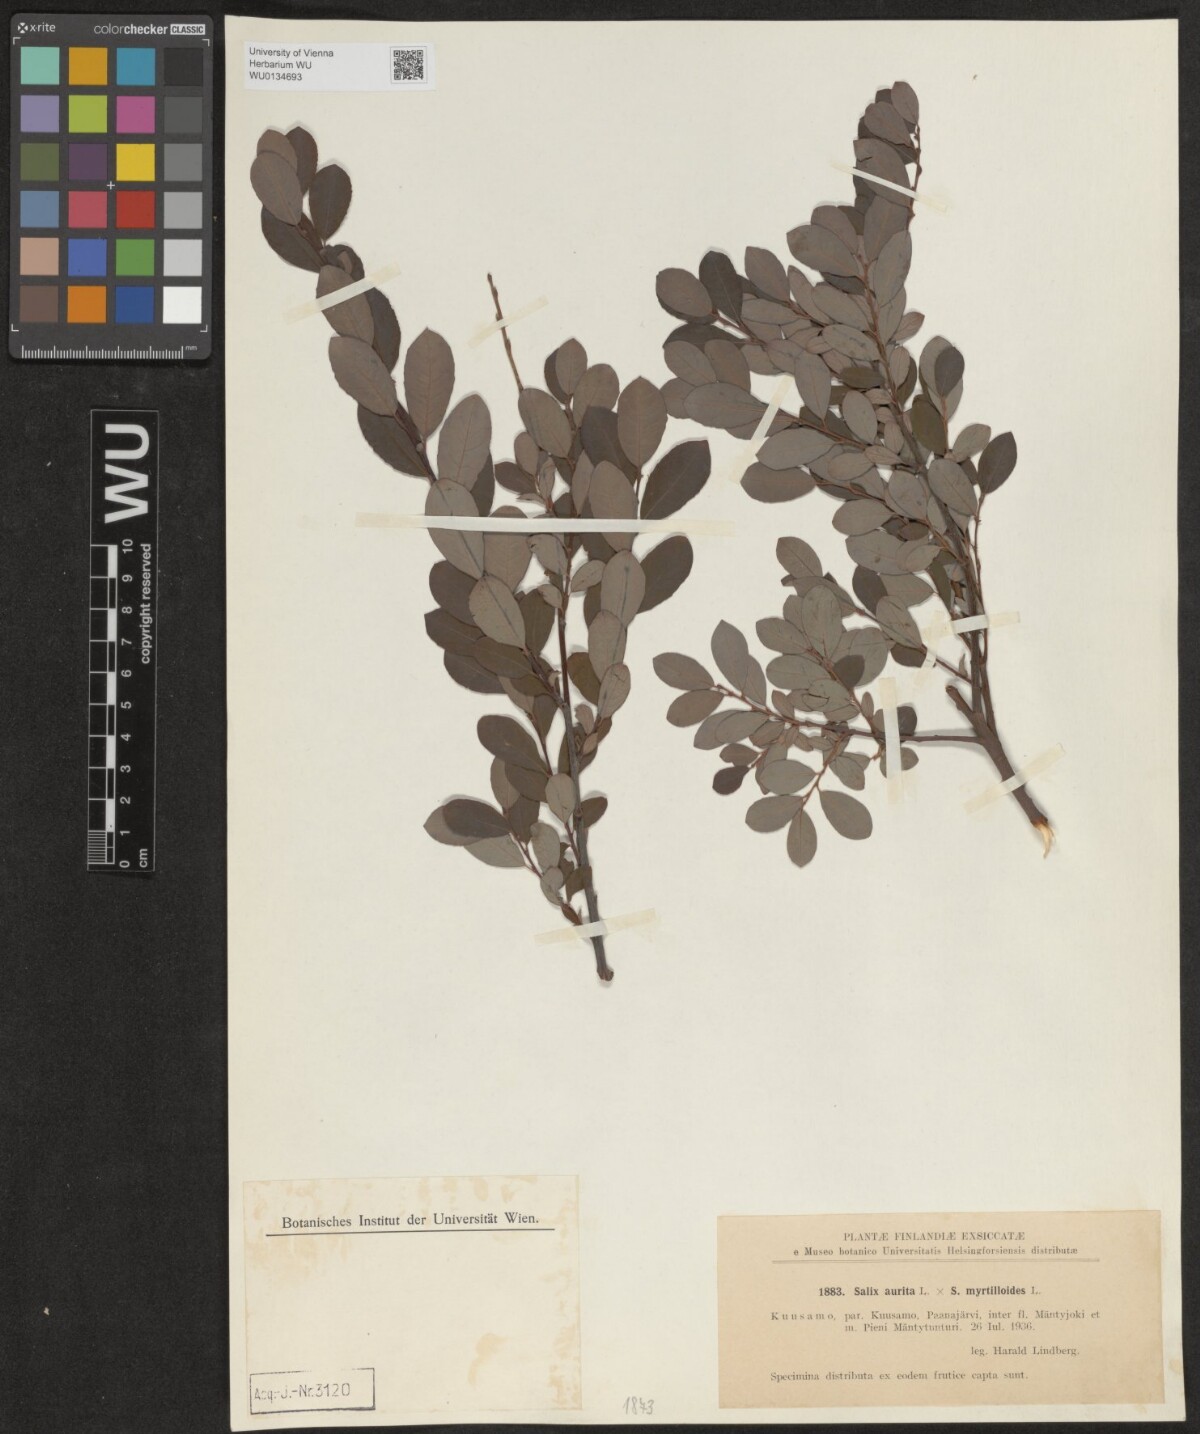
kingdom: Plantae
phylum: Tracheophyta
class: Magnoliopsida
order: Malpighiales
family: Salicaceae
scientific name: Salicaceae
